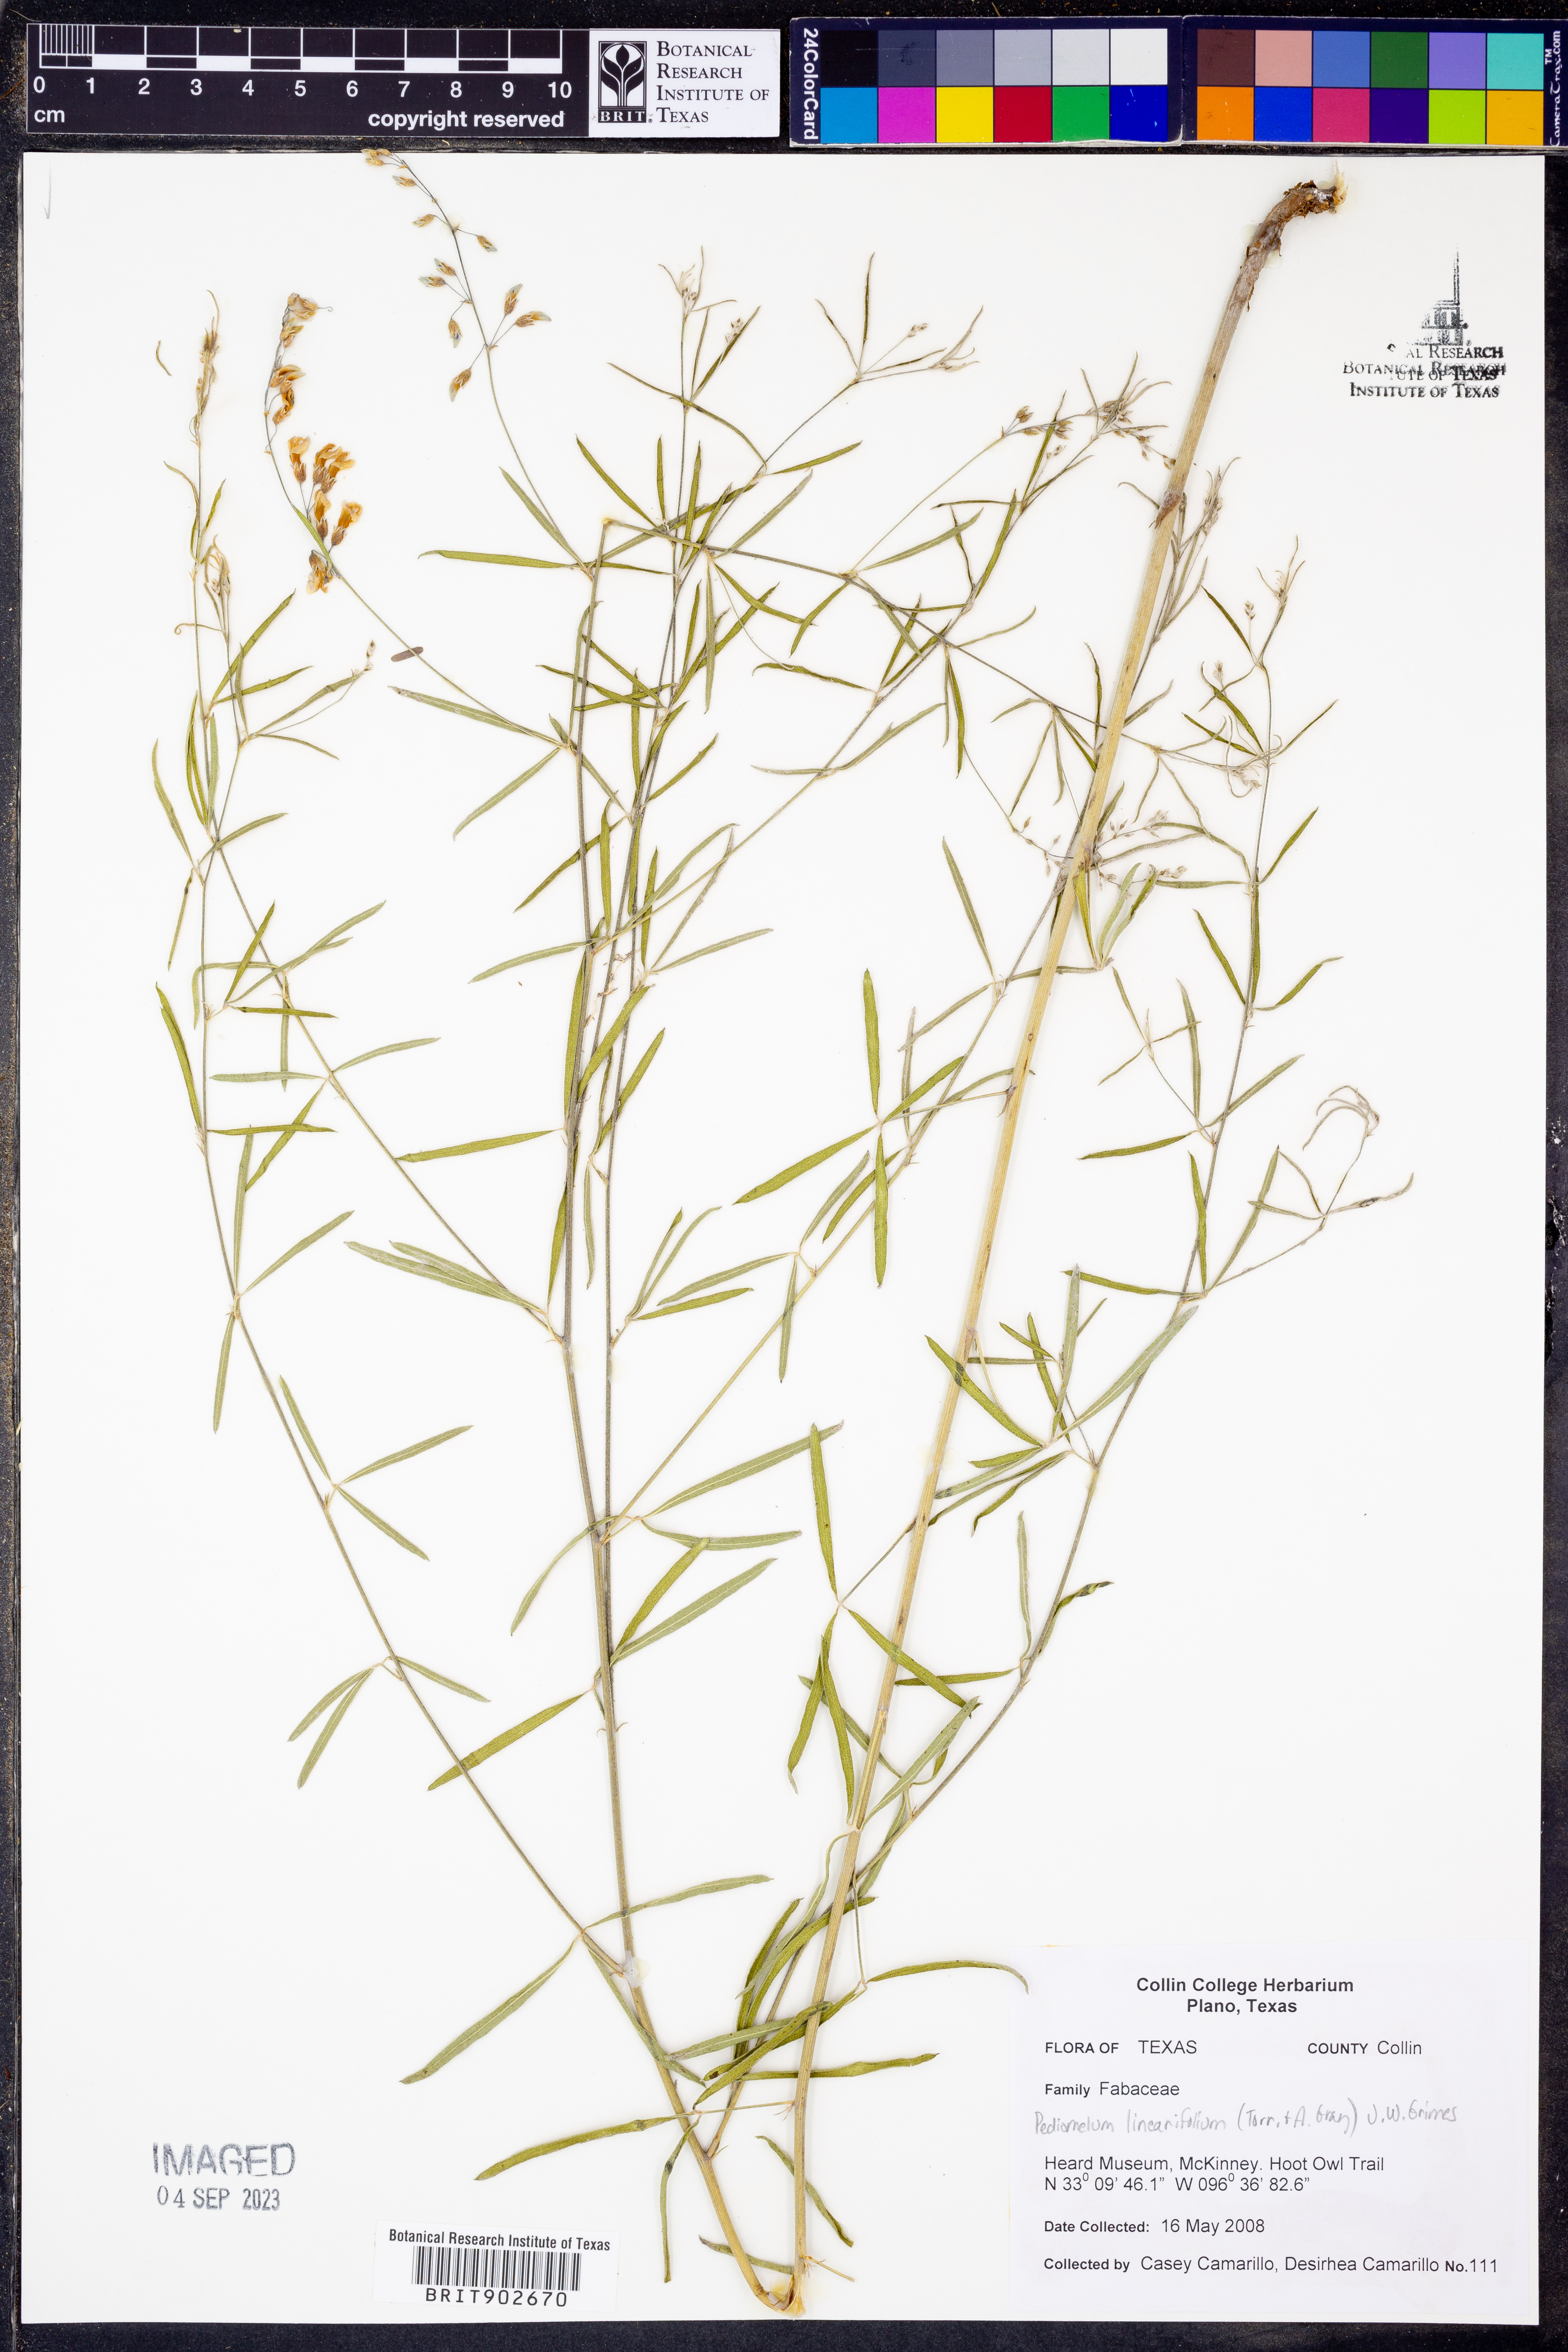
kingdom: Plantae
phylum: Tracheophyta
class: Magnoliopsida
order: Fabales
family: Fabaceae
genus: Pediomelum
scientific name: Pediomelum linearifolium
